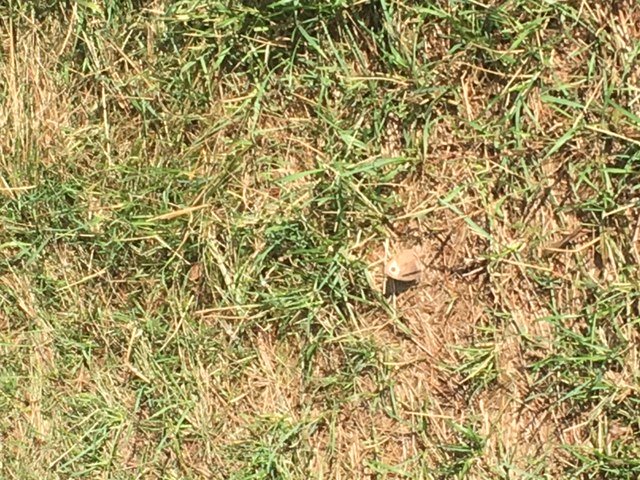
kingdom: Animalia
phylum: Arthropoda
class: Insecta
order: Lepidoptera
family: Nymphalidae
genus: Cercyonis
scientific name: Cercyonis pegala
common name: Common Wood-Nymph
